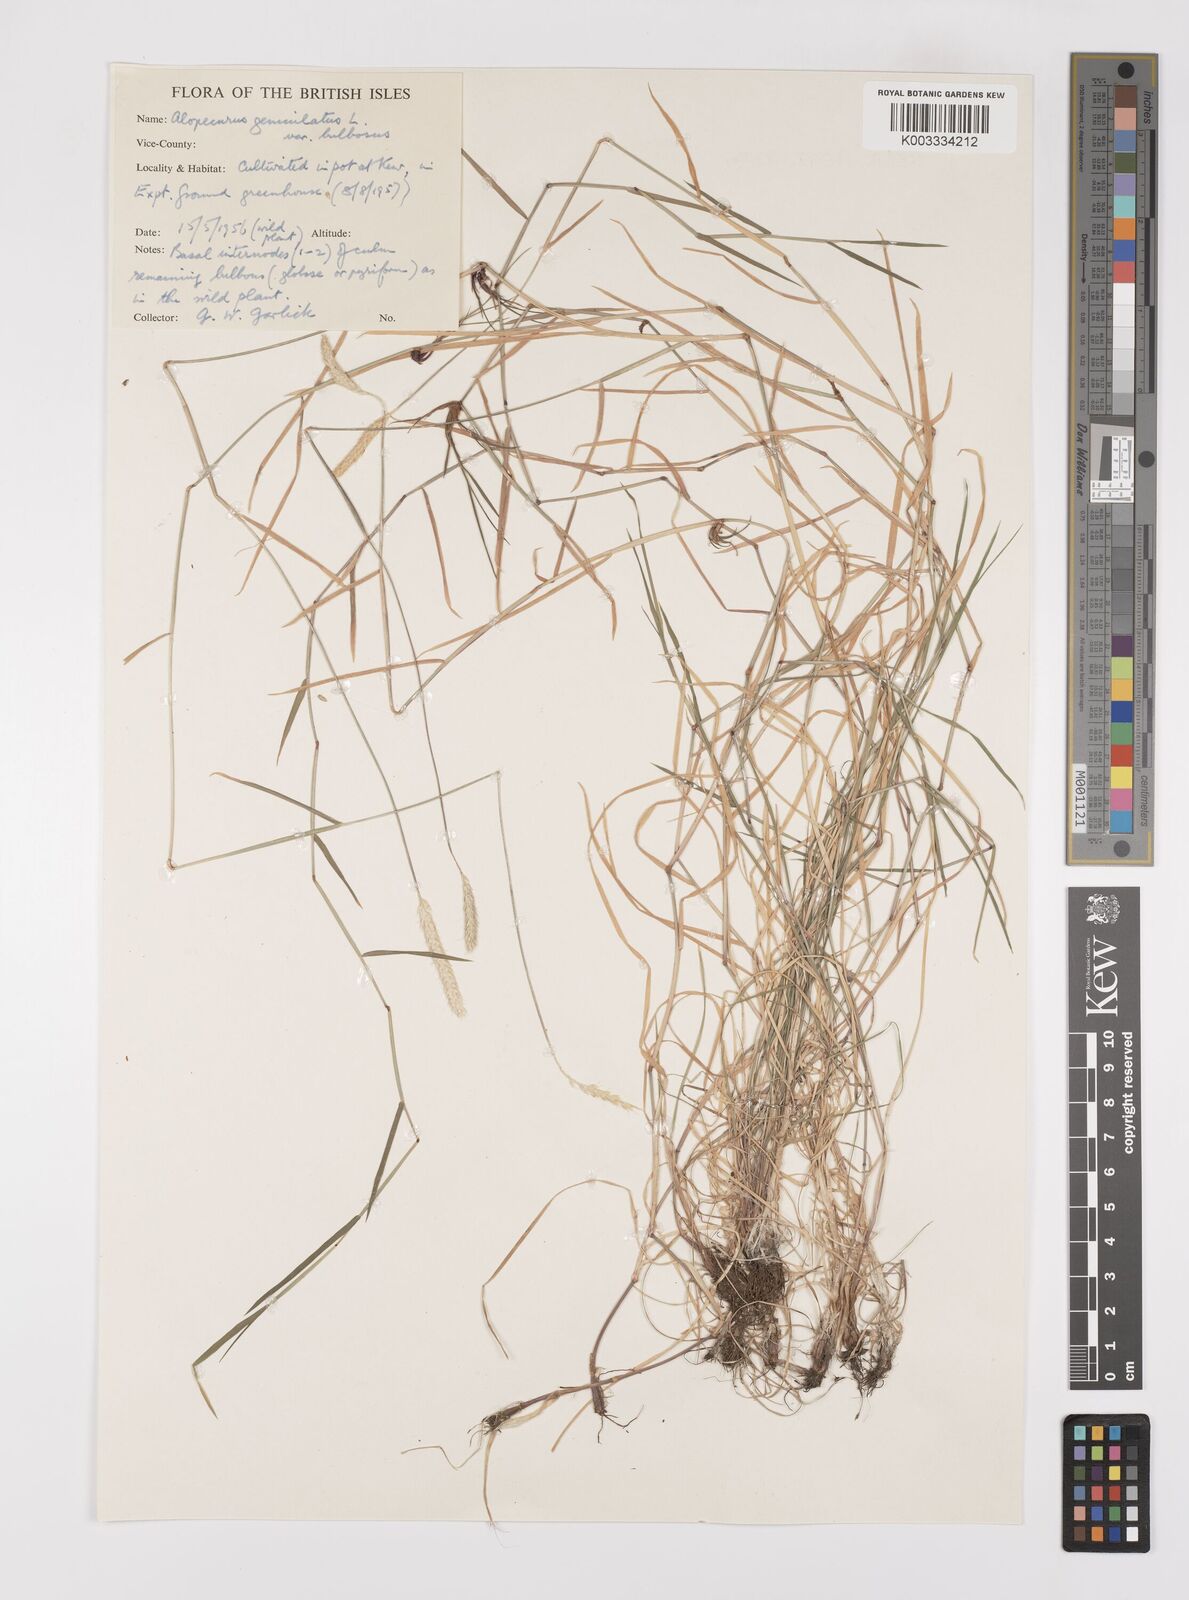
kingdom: Plantae
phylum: Tracheophyta
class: Liliopsida
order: Poales
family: Poaceae
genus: Alopecurus
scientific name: Alopecurus geniculatus
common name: Water foxtail
